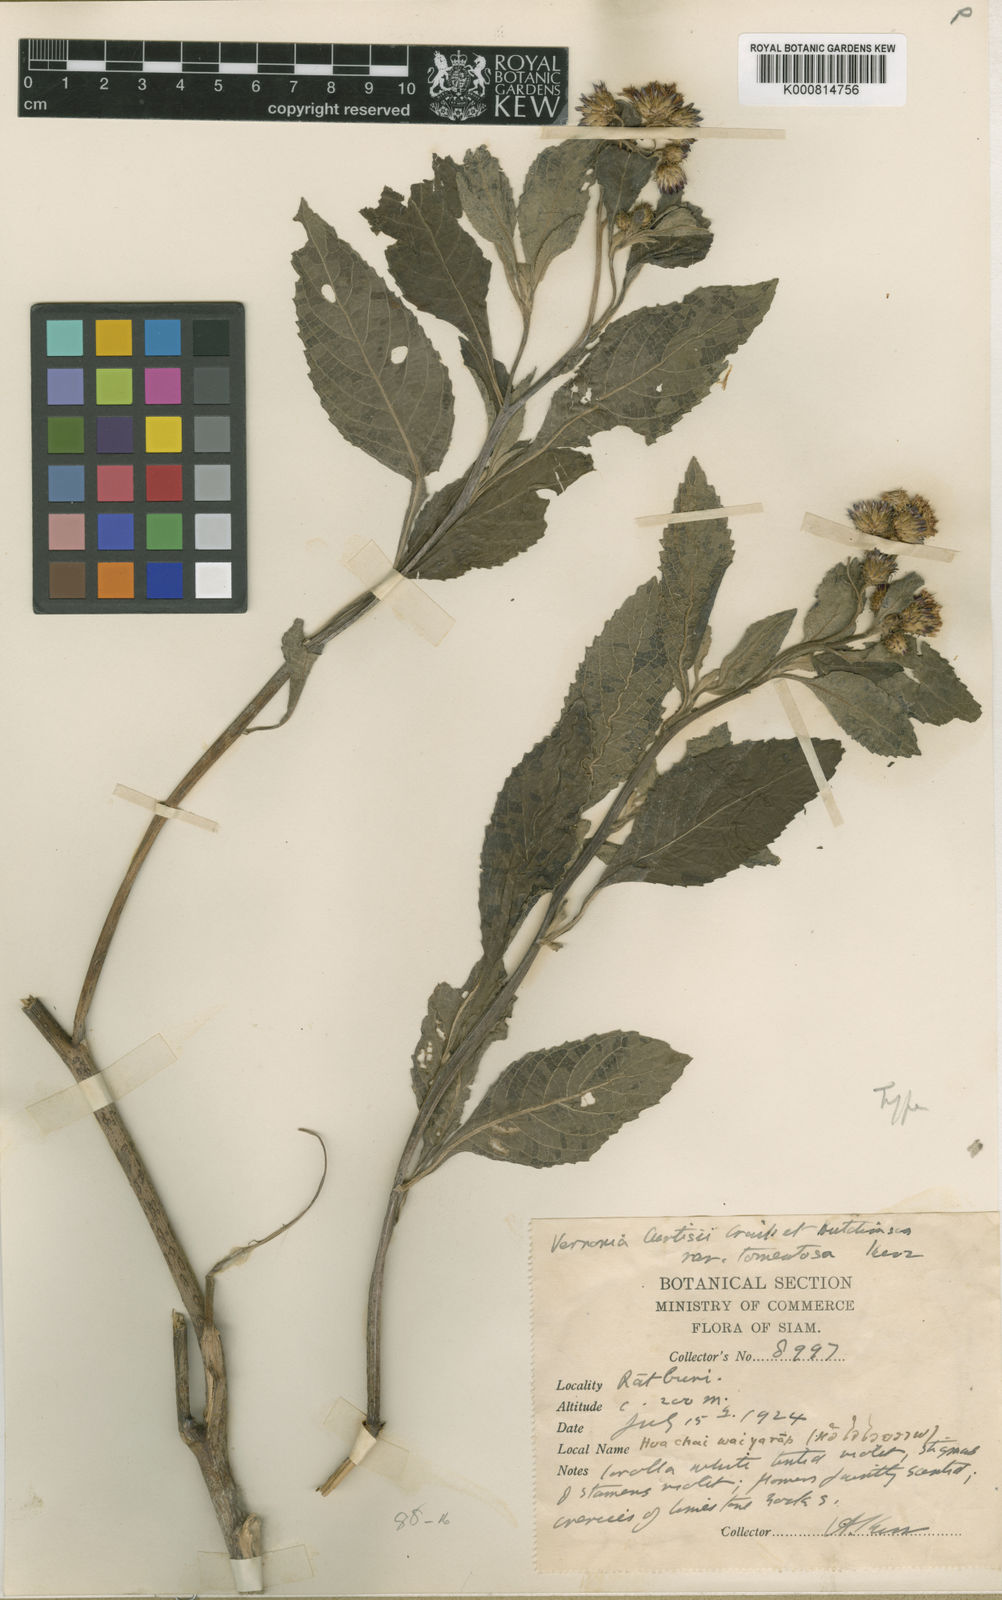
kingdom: Plantae
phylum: Tracheophyta
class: Magnoliopsida
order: Asterales
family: Asteraceae
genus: Koyamasia
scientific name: Koyamasia curtisii
